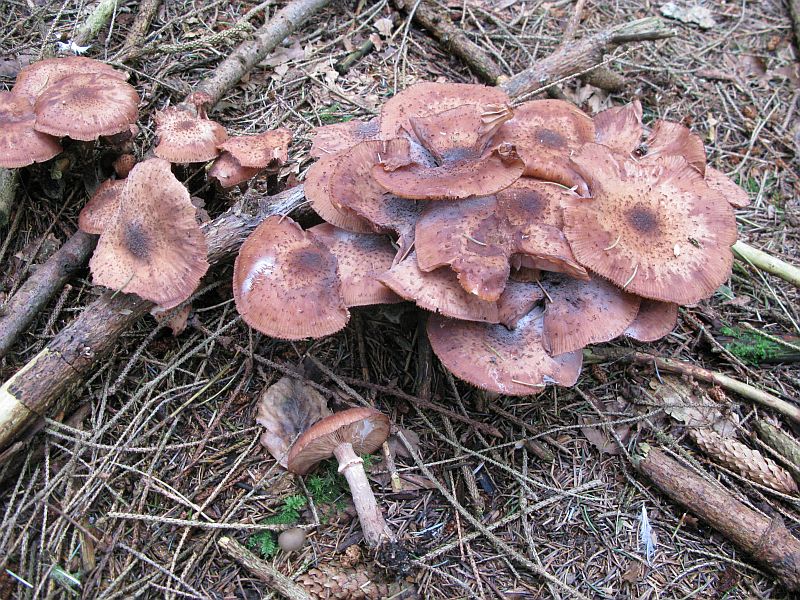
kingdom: Fungi
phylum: Basidiomycota
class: Agaricomycetes
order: Agaricales
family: Physalacriaceae
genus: Armillaria
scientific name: Armillaria ostoyae
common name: mørk honningsvamp
